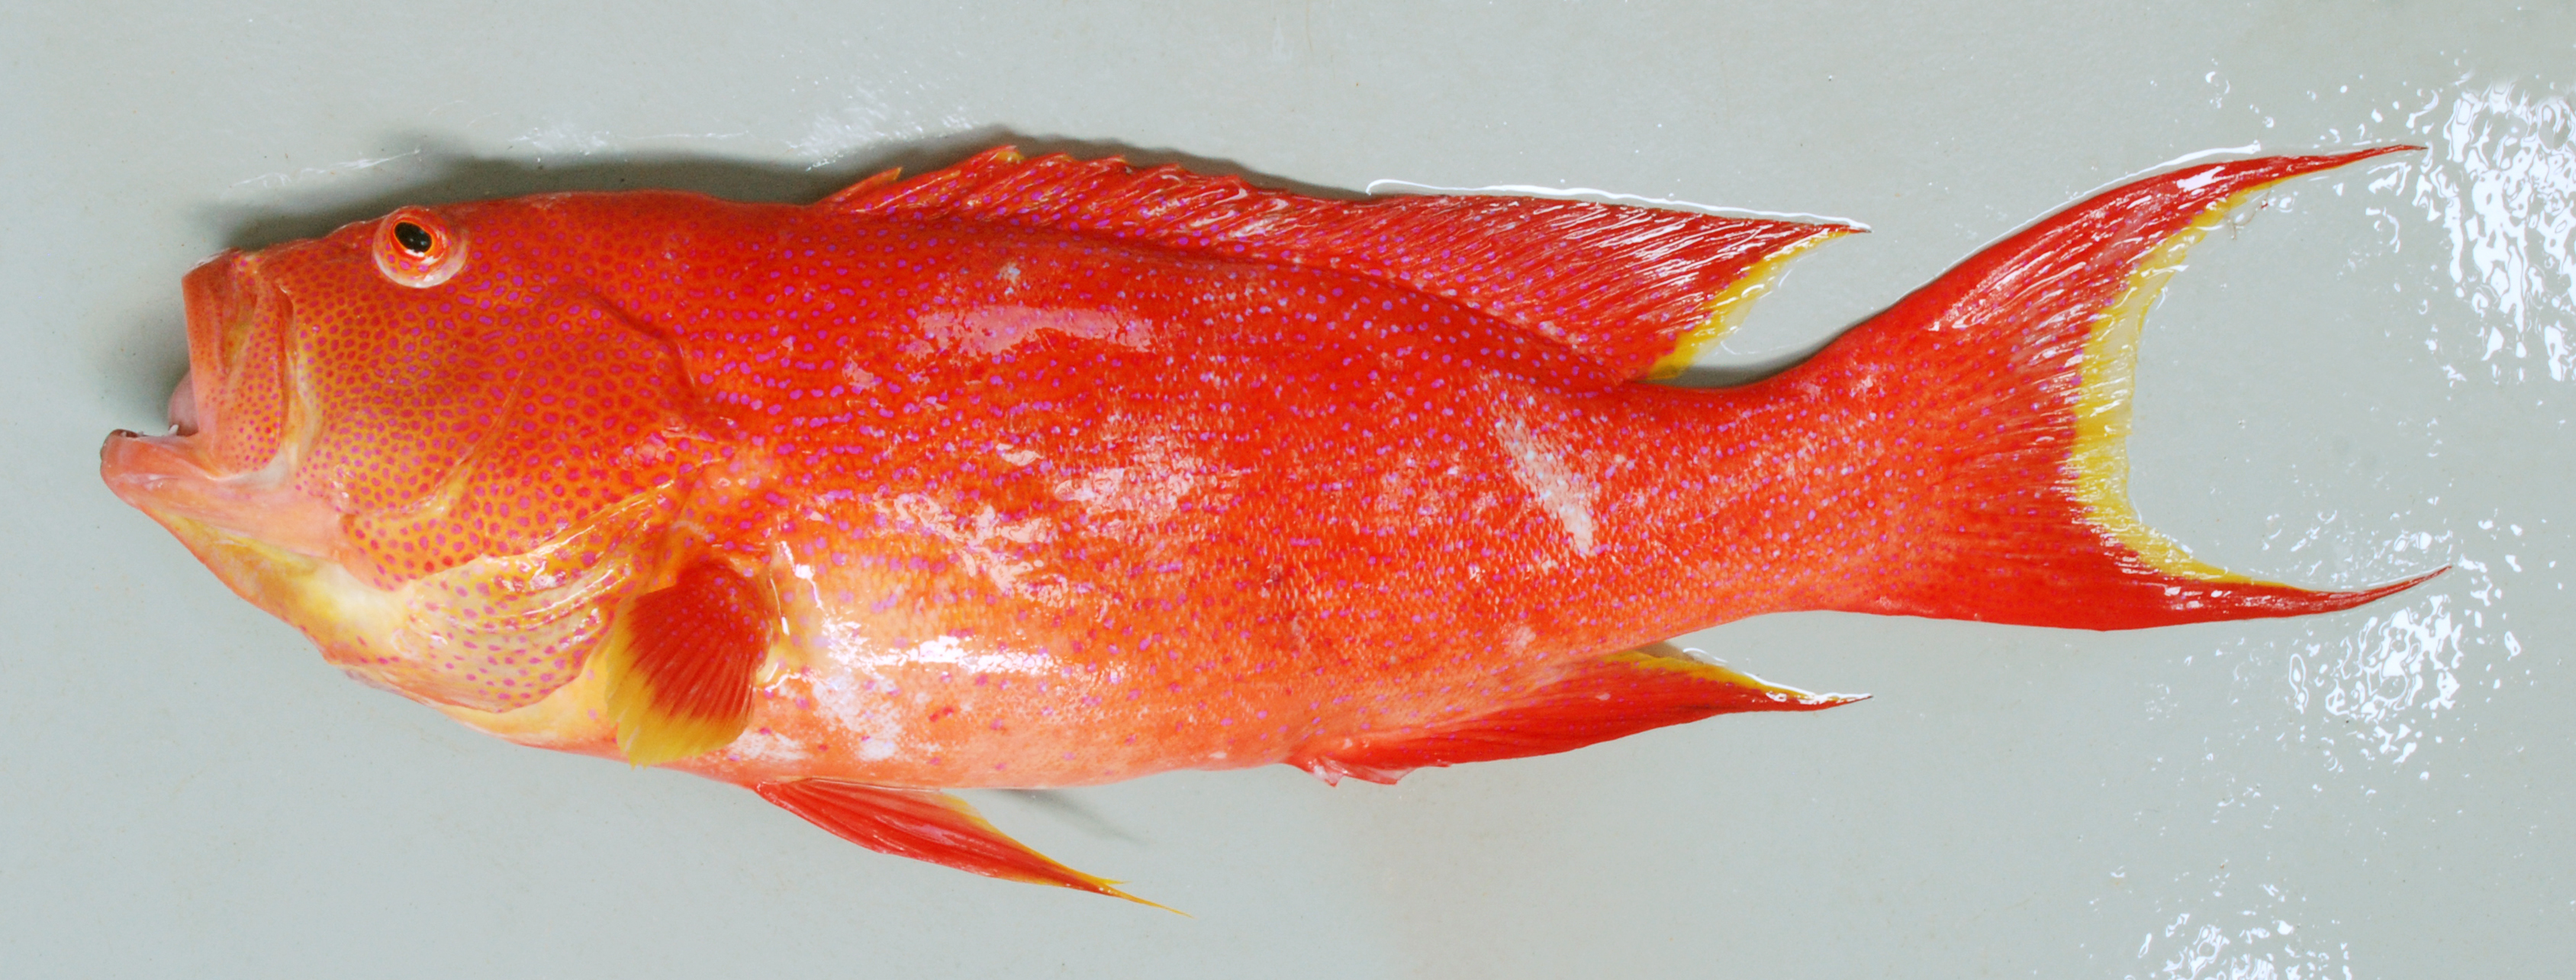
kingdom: Animalia
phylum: Chordata
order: Perciformes
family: Serranidae
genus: Variola
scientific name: Variola albimarginata
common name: Lunar-tailed grouper
